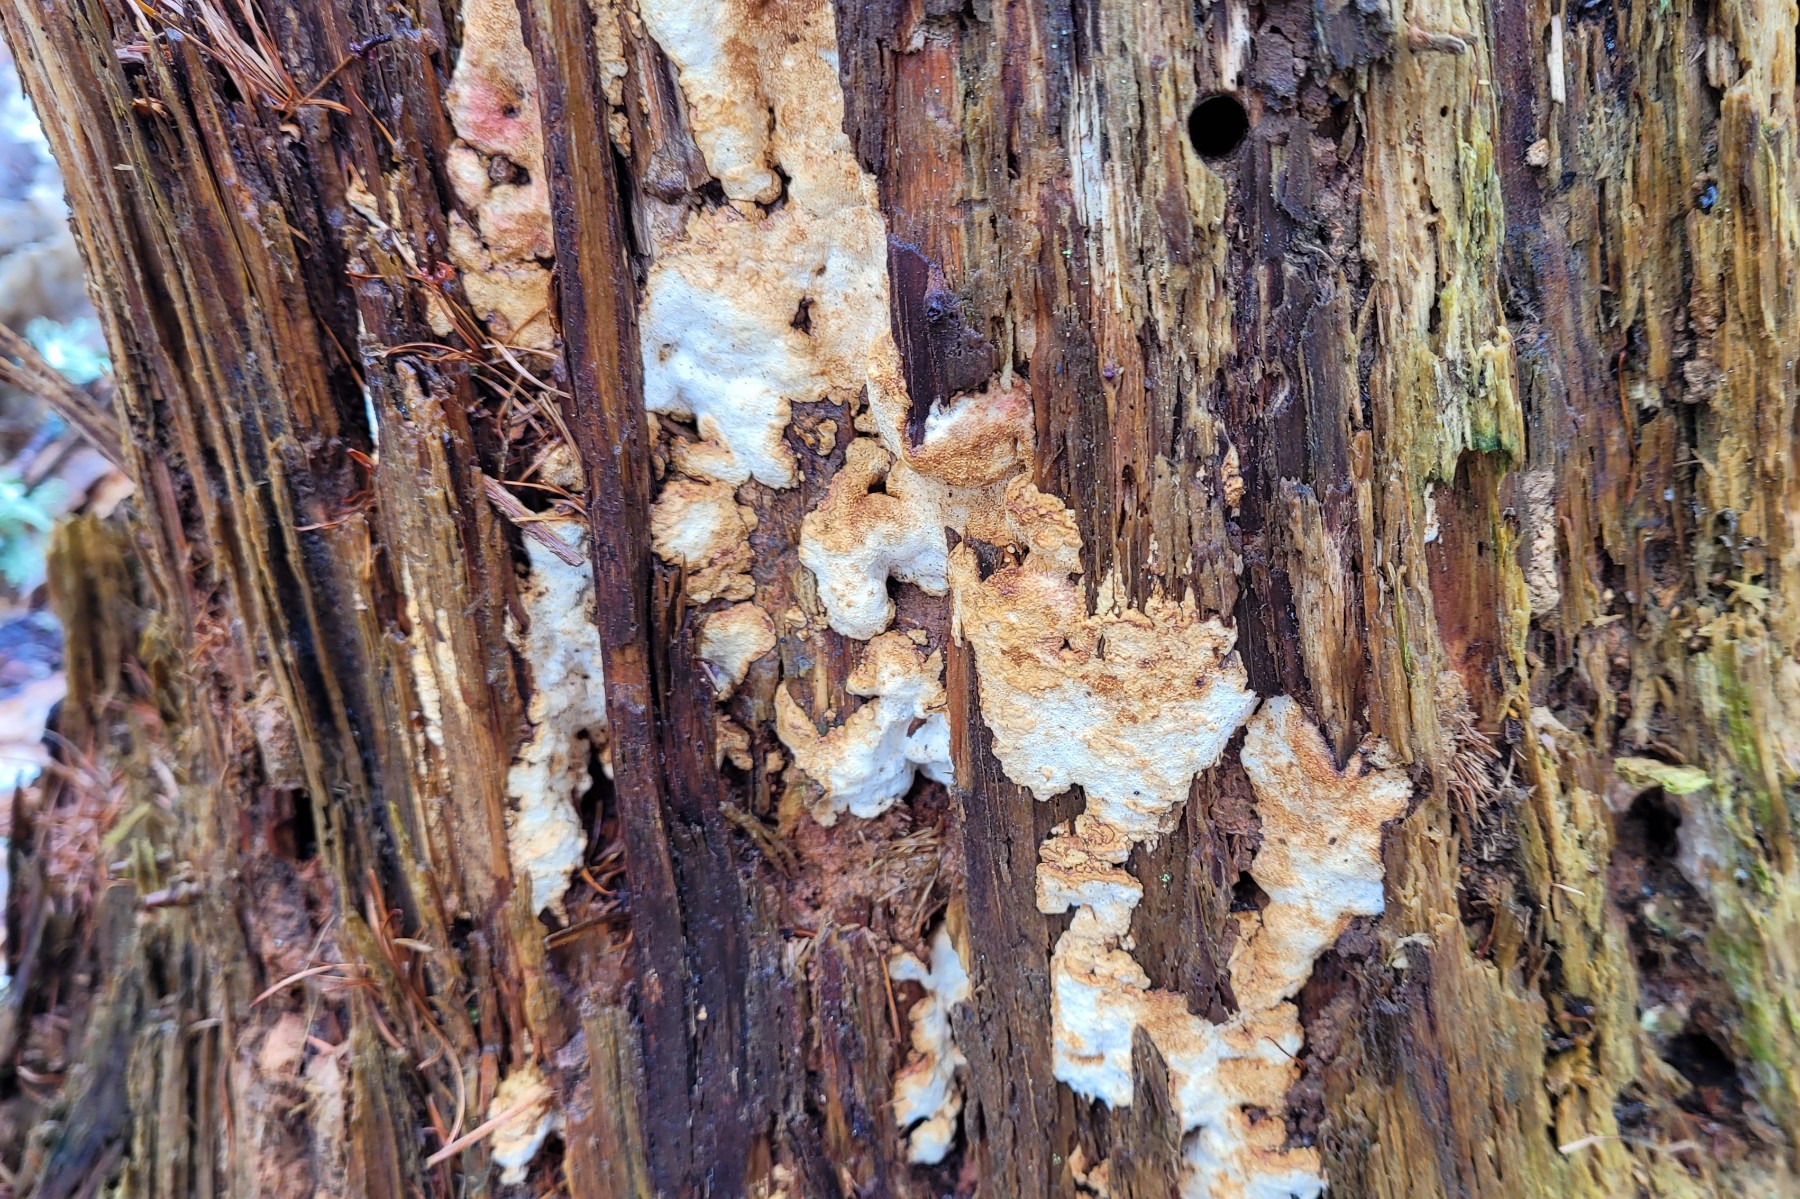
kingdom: Fungi
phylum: Basidiomycota
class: Agaricomycetes
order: Polyporales
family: Fomitopsidaceae
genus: Neoantrodia
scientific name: Neoantrodia serialis
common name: række-sejporesvamp
